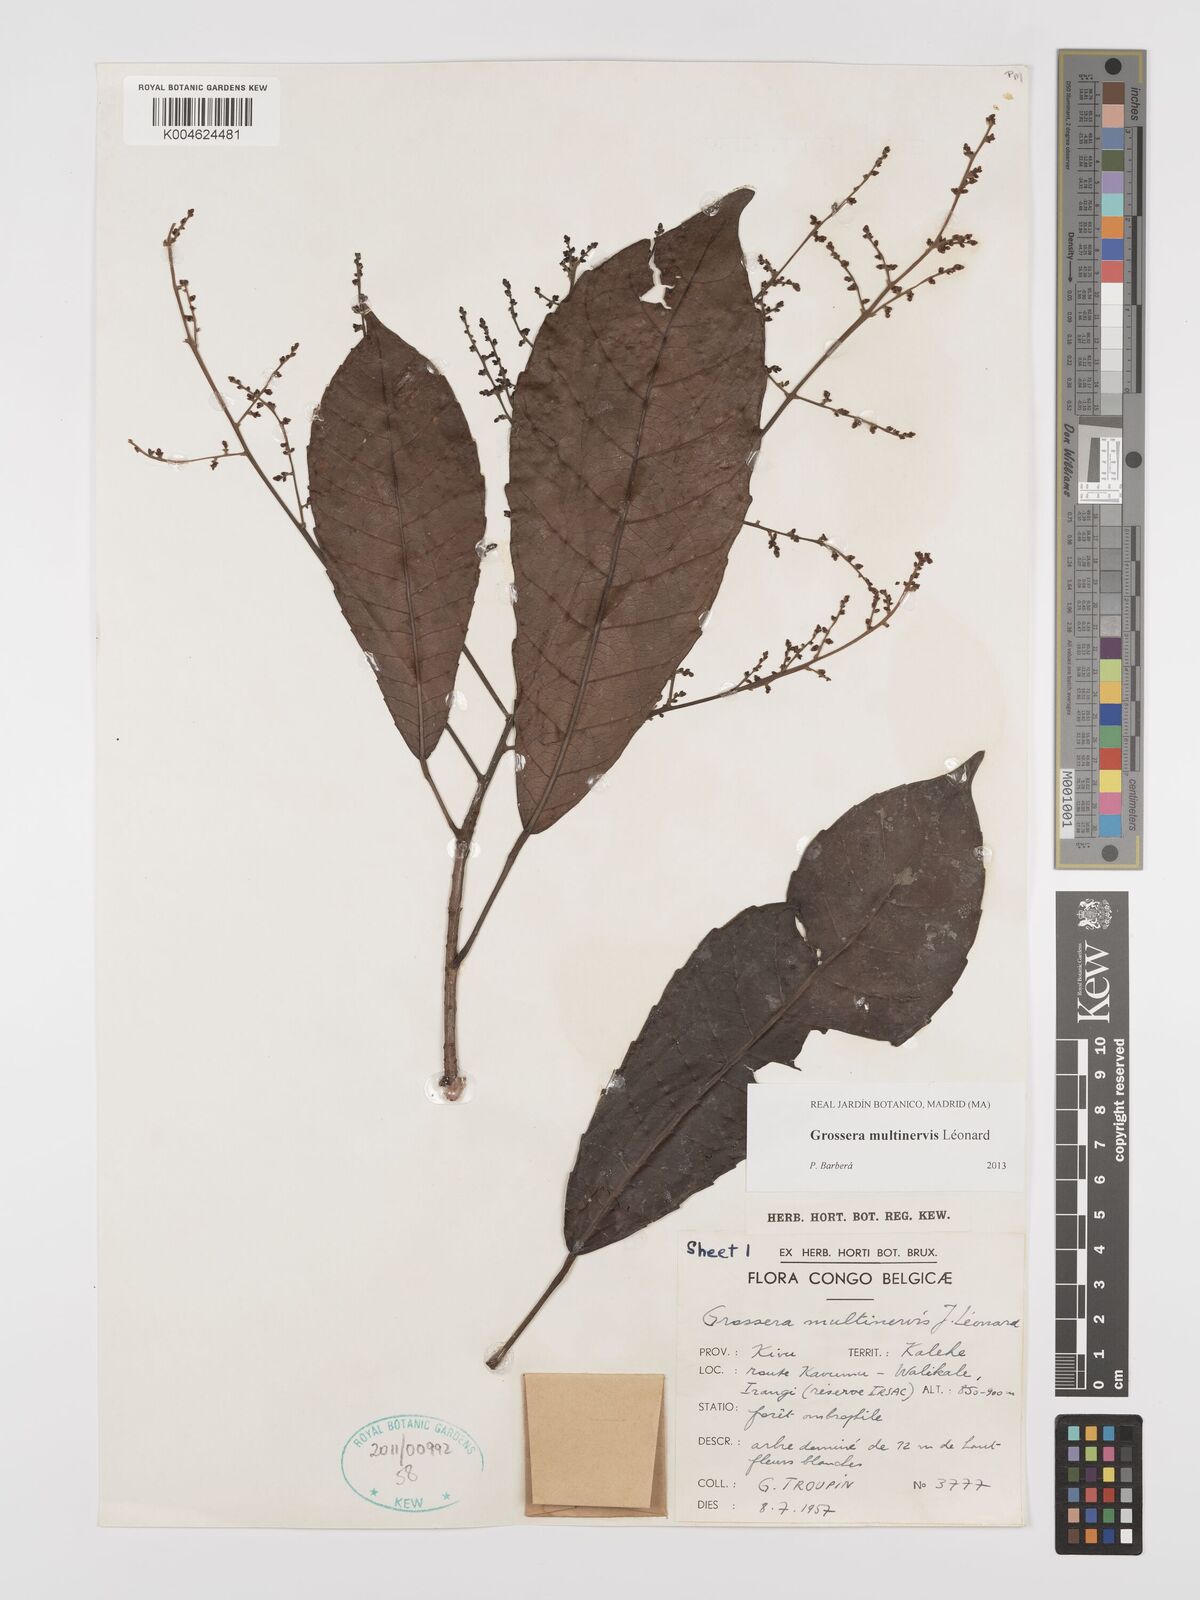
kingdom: Plantae
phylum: Tracheophyta
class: Magnoliopsida
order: Malpighiales
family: Euphorbiaceae
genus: Grossera
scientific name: Grossera multinervis
